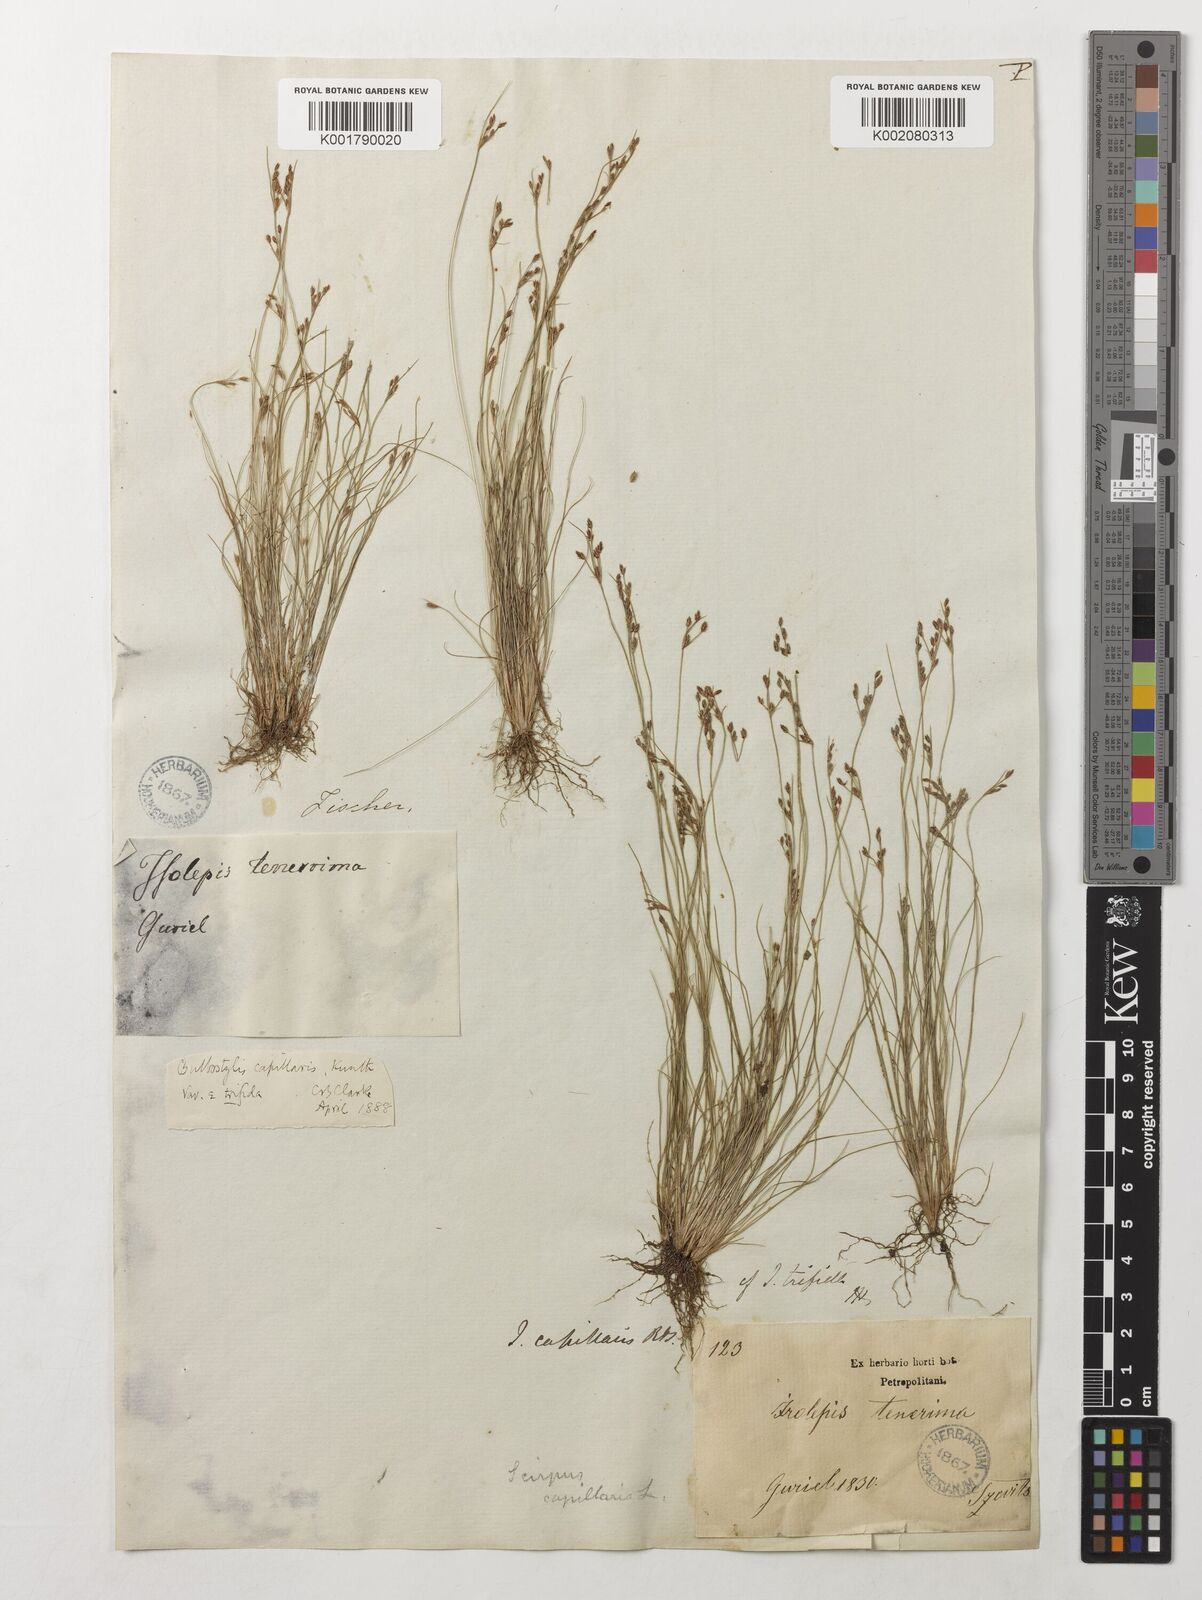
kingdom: Plantae
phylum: Tracheophyta
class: Liliopsida
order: Poales
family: Cyperaceae
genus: Bulbostylis
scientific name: Bulbostylis densa
